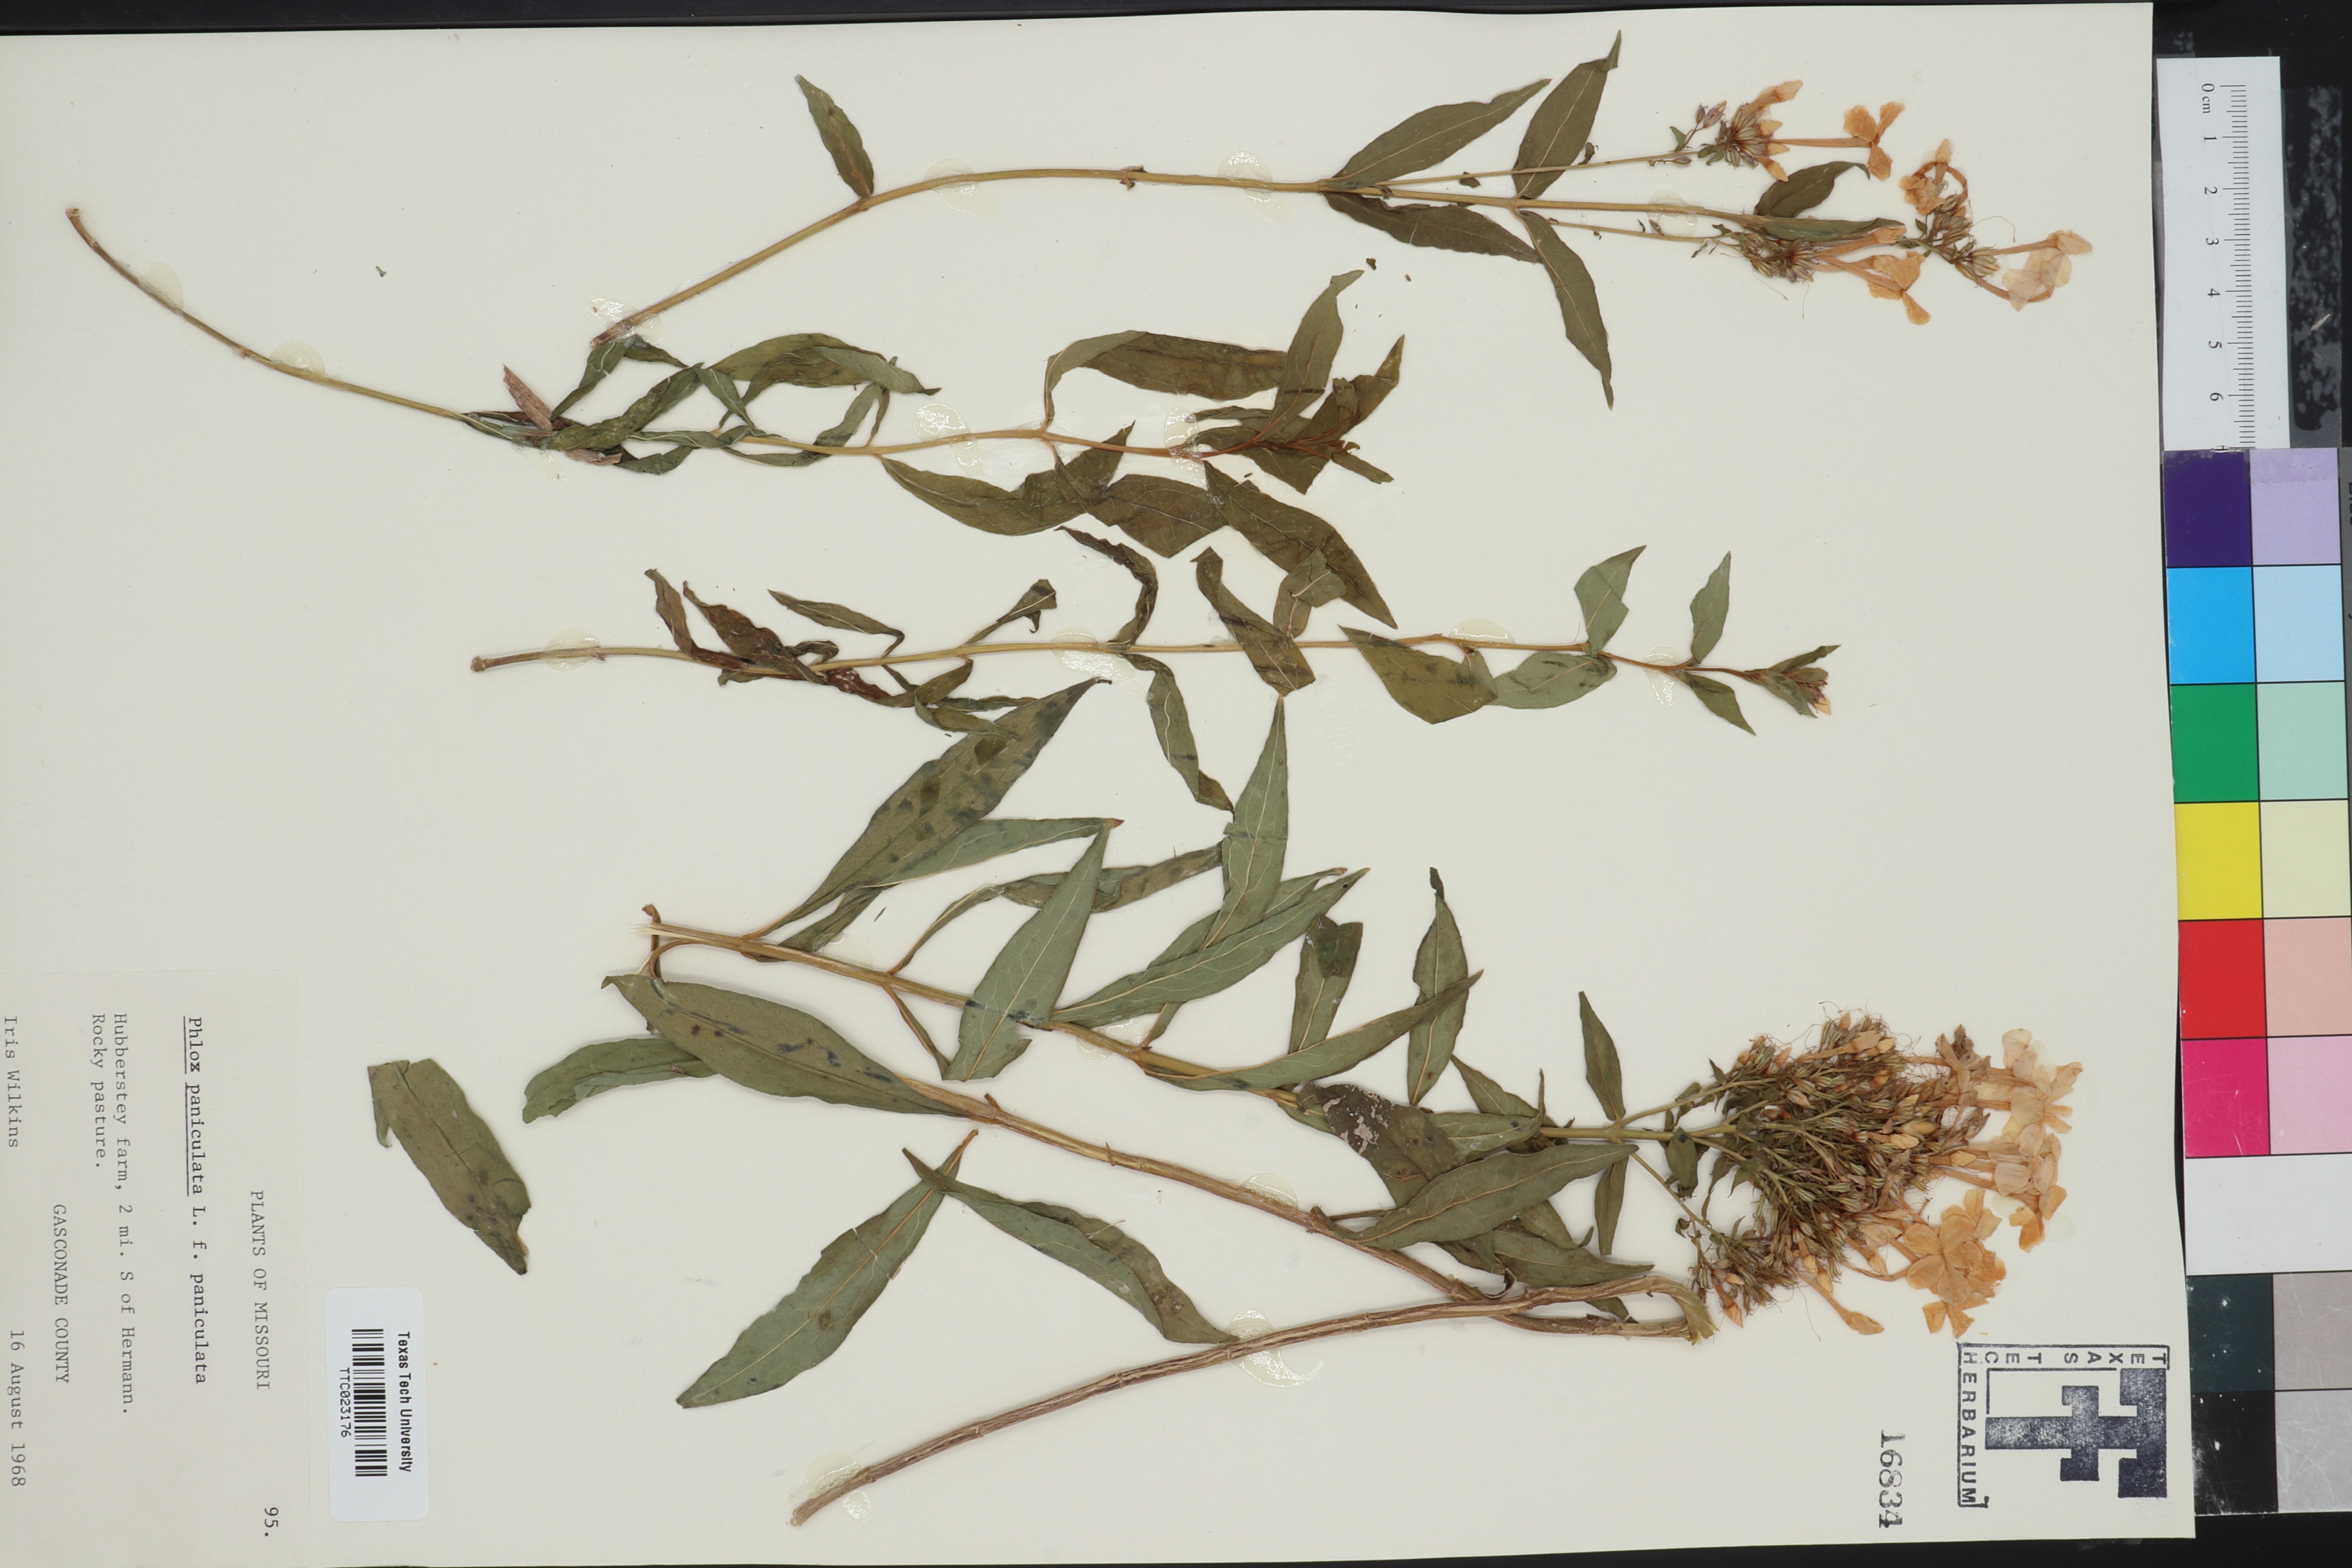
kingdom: Plantae
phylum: Tracheophyta
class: Magnoliopsida
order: Ericales
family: Polemoniaceae
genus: Phlox
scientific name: Phlox paniculata
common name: Fall phlox
